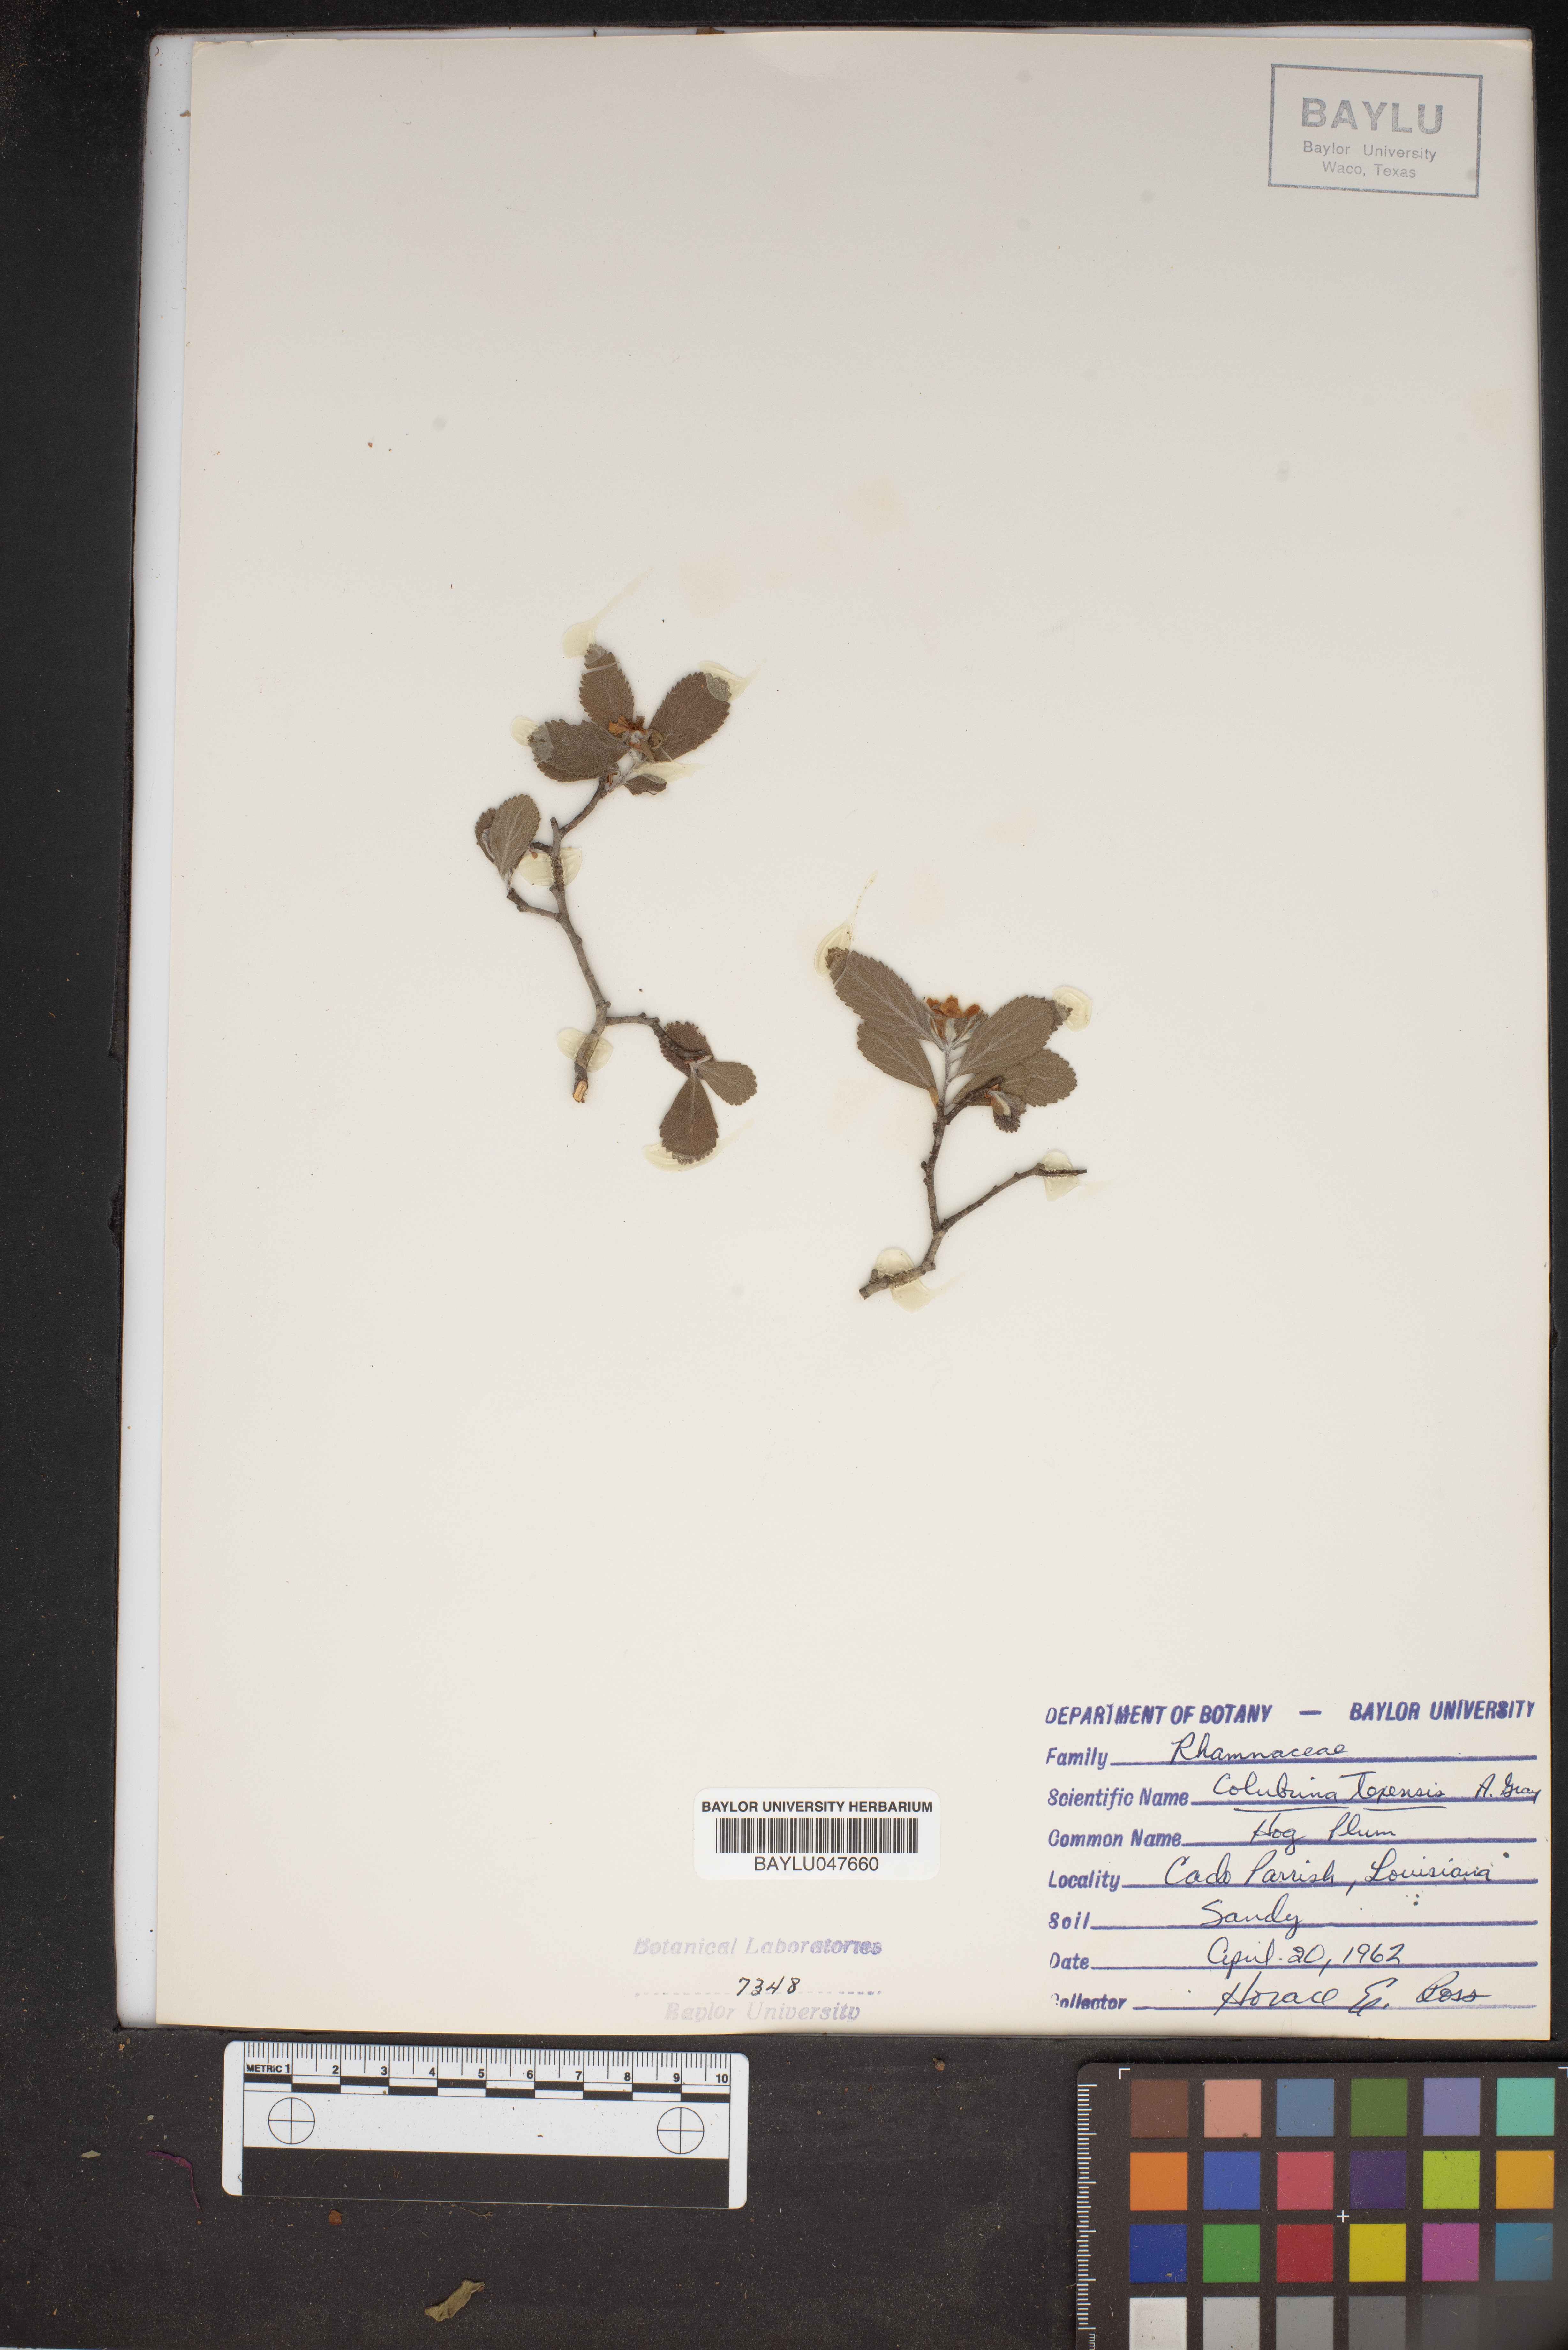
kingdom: Plantae
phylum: Tracheophyta
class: Magnoliopsida
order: Rosales
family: Rhamnaceae
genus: Colubrina
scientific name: Colubrina texensis
